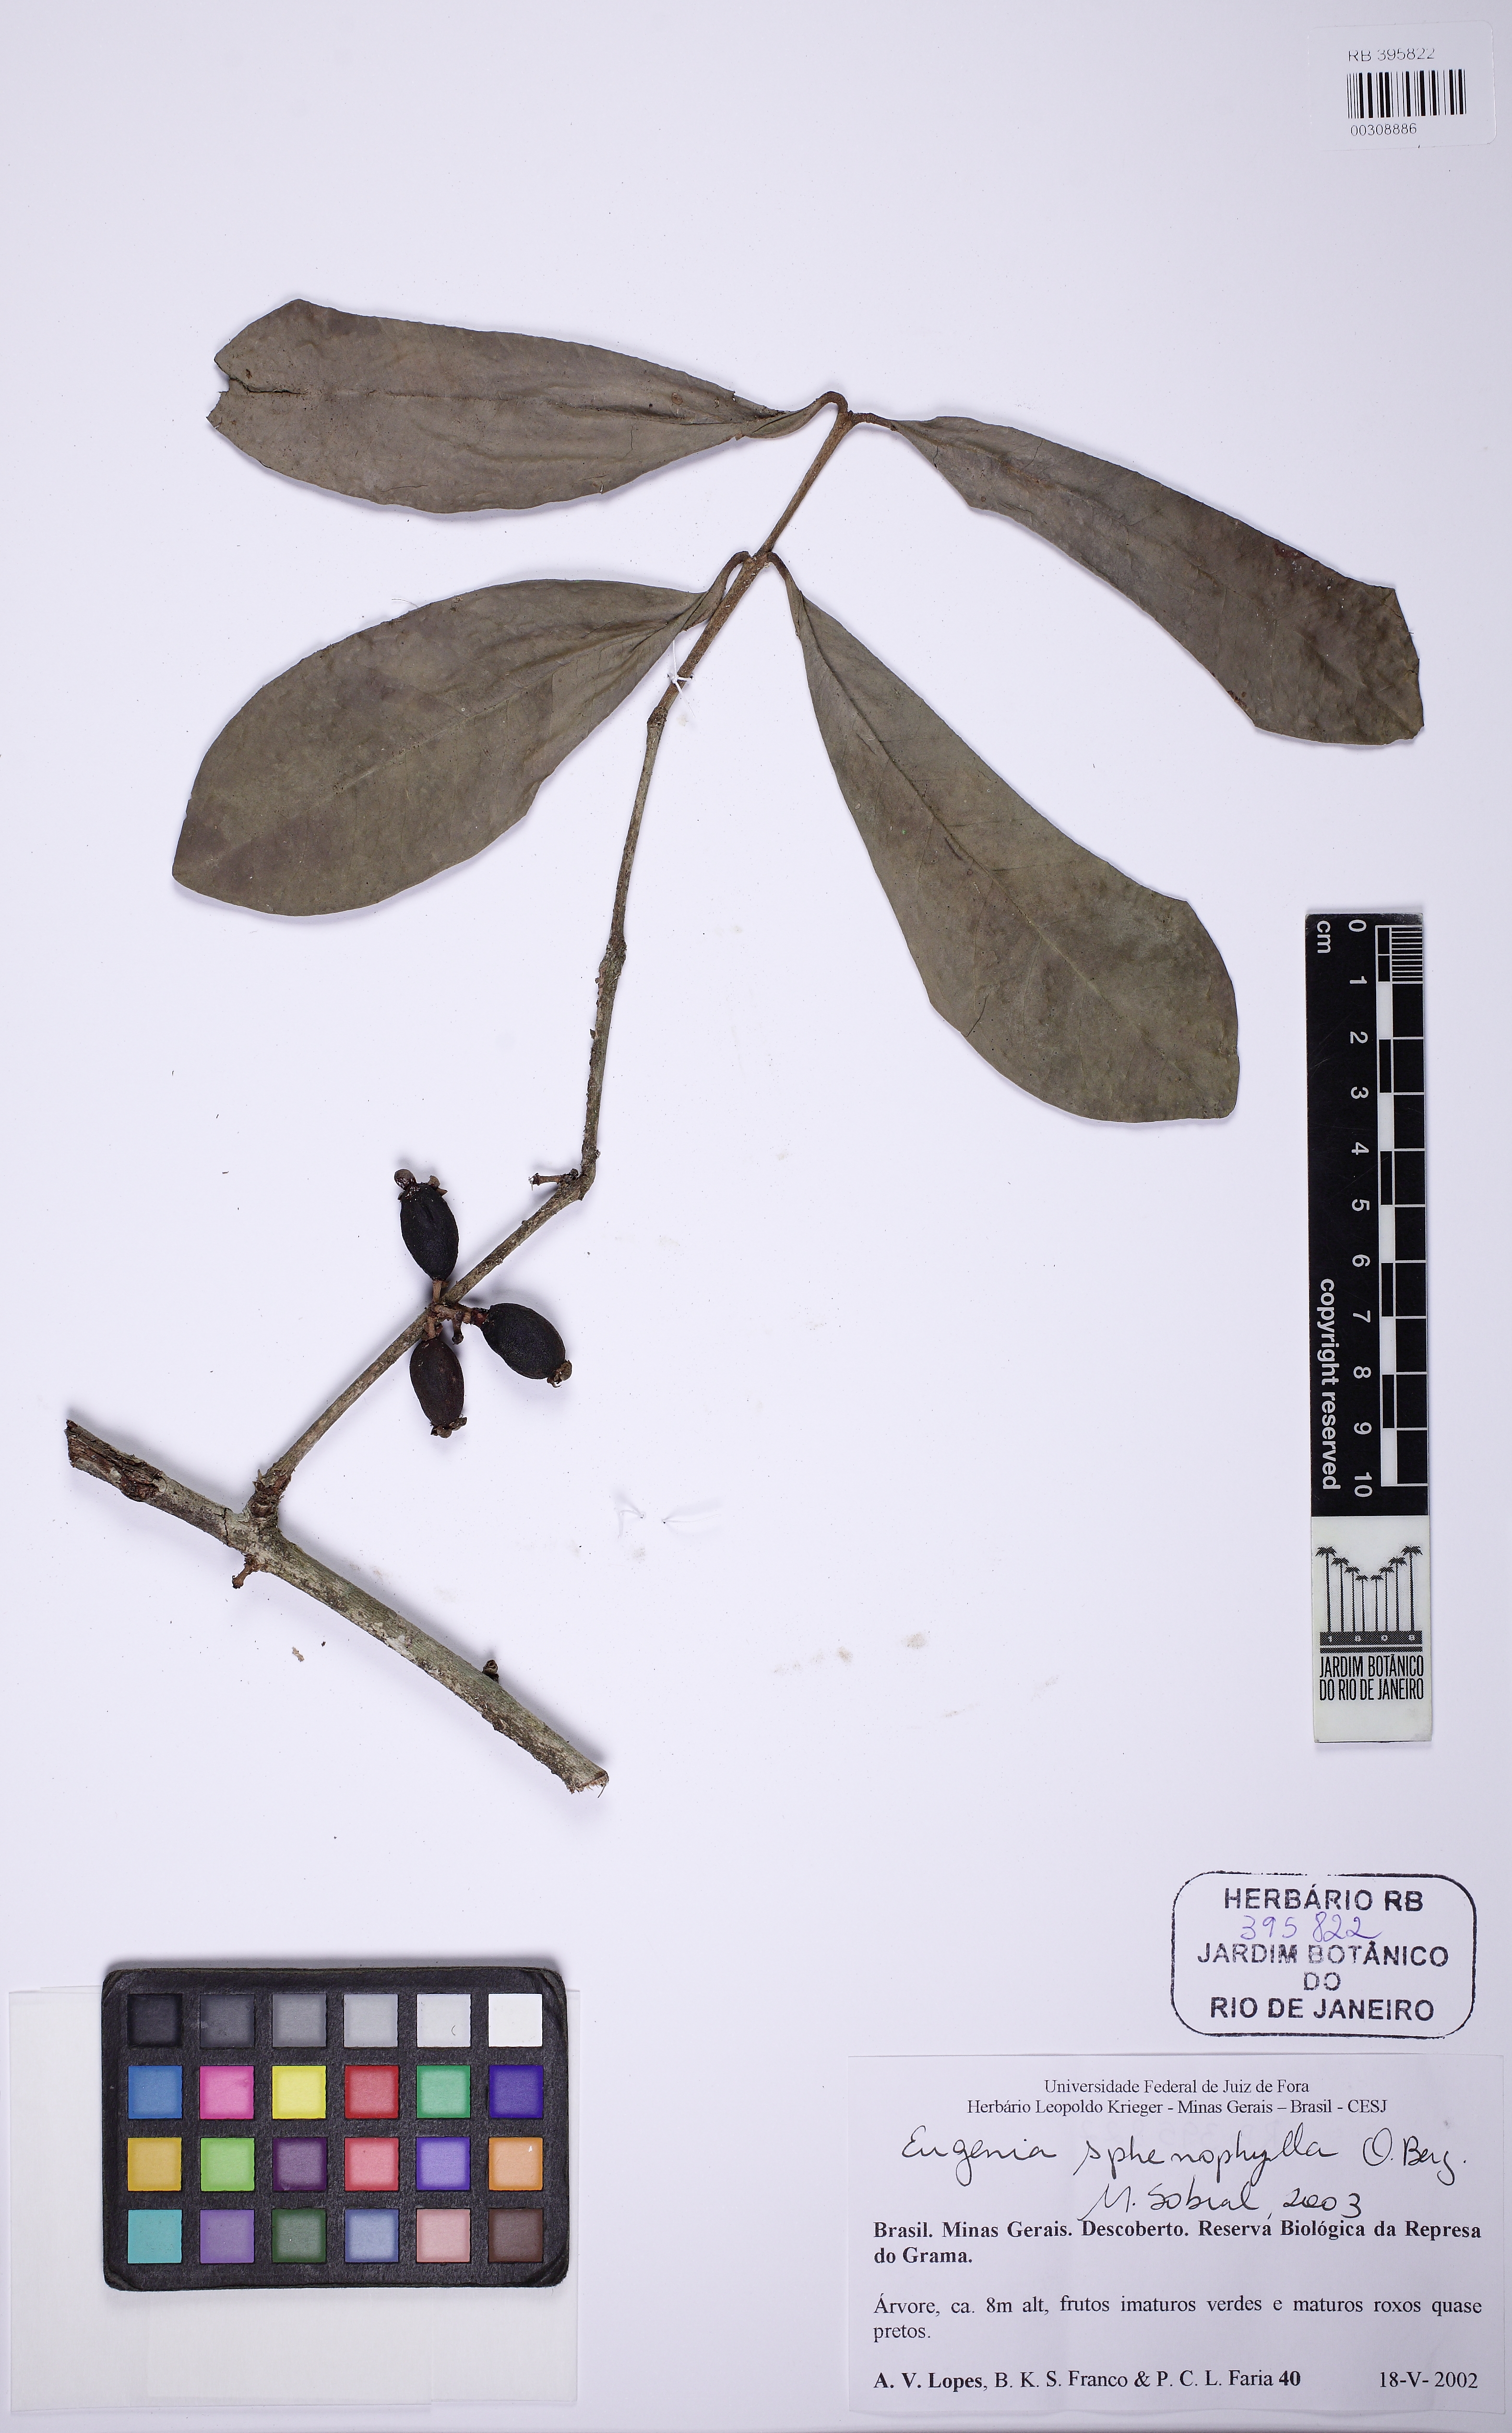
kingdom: Plantae
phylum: Tracheophyta
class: Magnoliopsida
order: Myrtales
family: Myrtaceae
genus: Eugenia
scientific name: Eugenia sphenophylla
